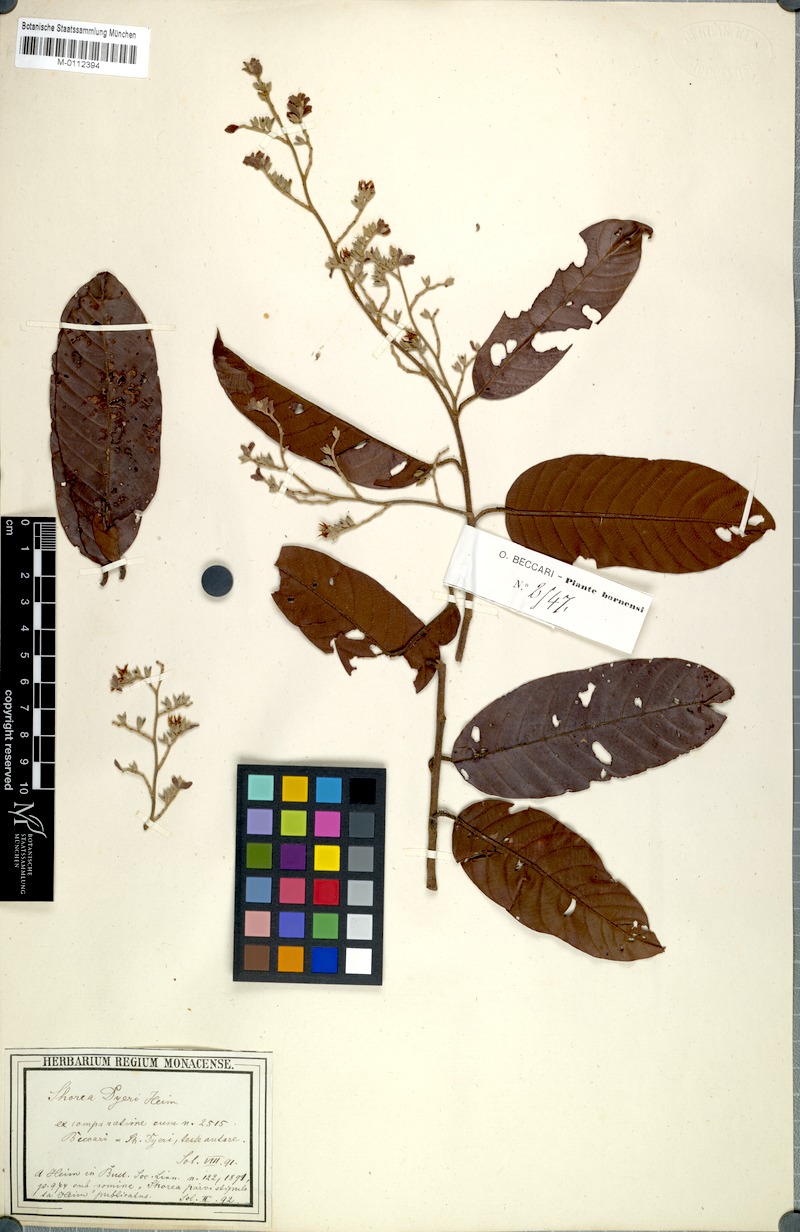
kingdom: Plantae
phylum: Tracheophyta
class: Magnoliopsida
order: Malvales
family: Dipterocarpaceae
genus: Shorea
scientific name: Shorea parvistipulata
